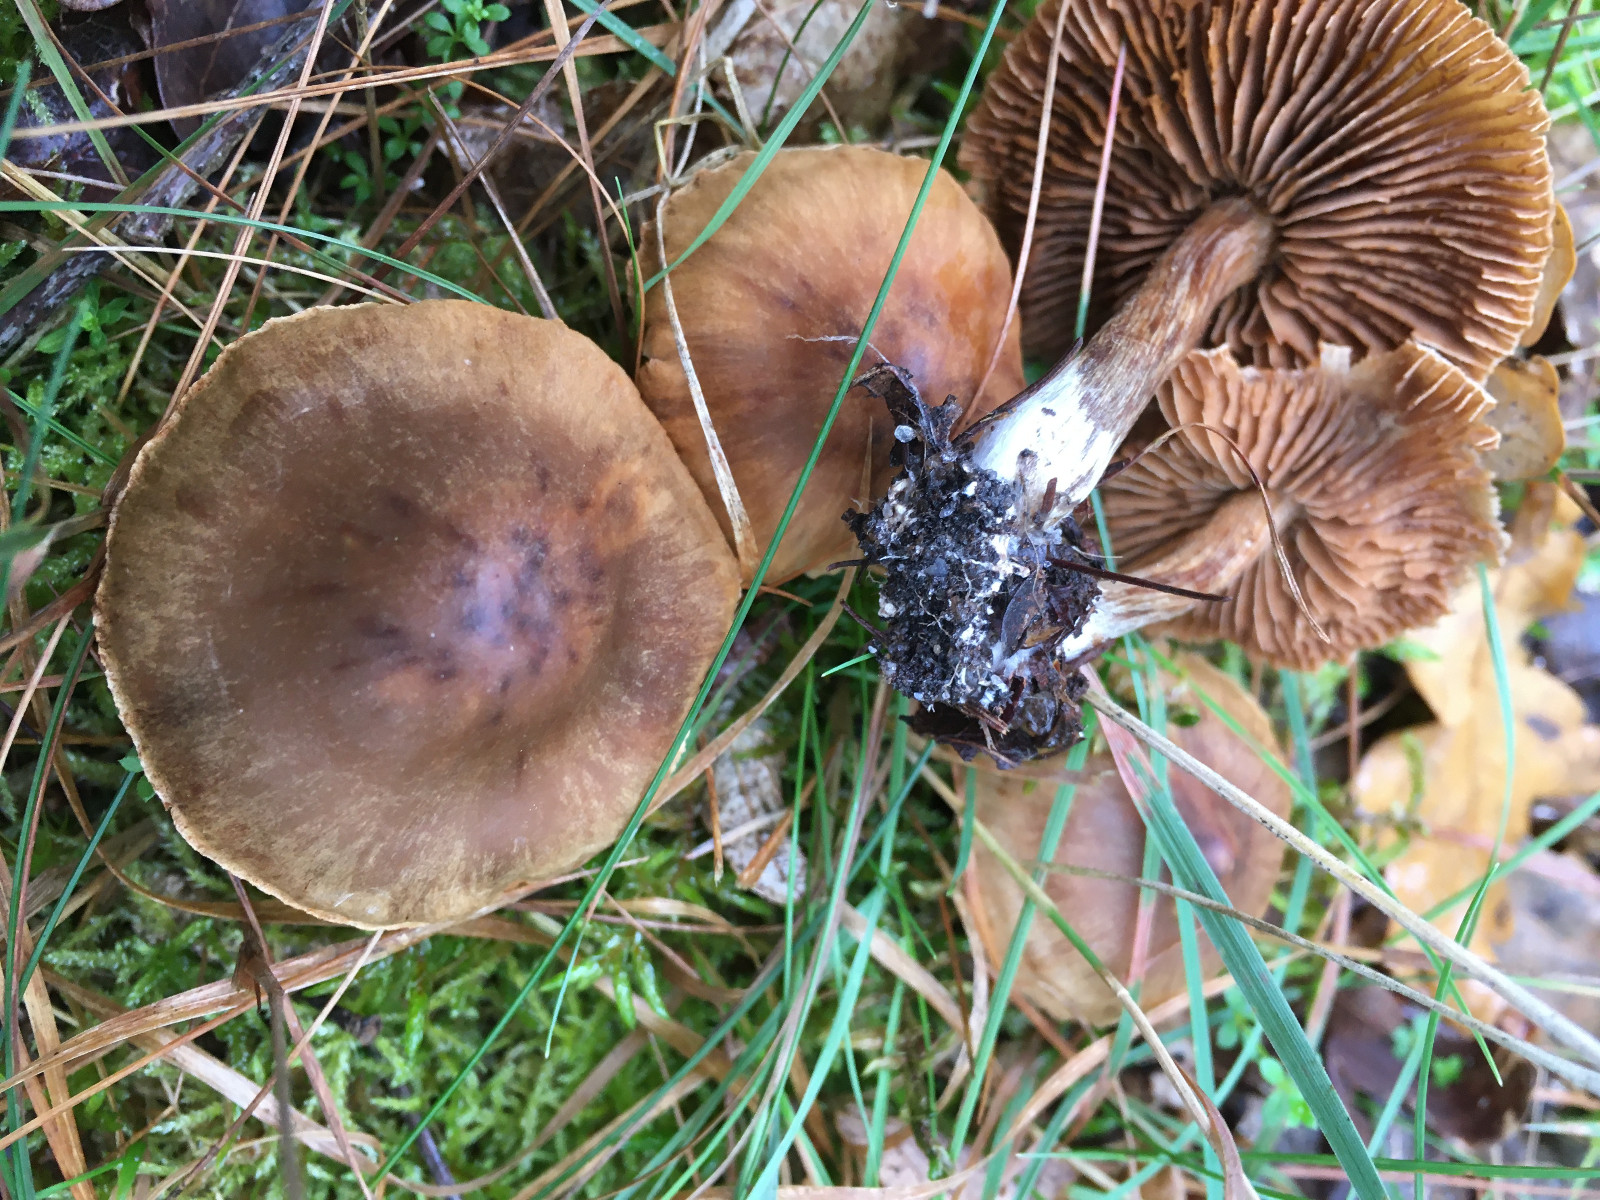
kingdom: Fungi
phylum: Basidiomycota
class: Agaricomycetes
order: Agaricales
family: Cortinariaceae
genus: Cortinarius
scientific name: Cortinarius
